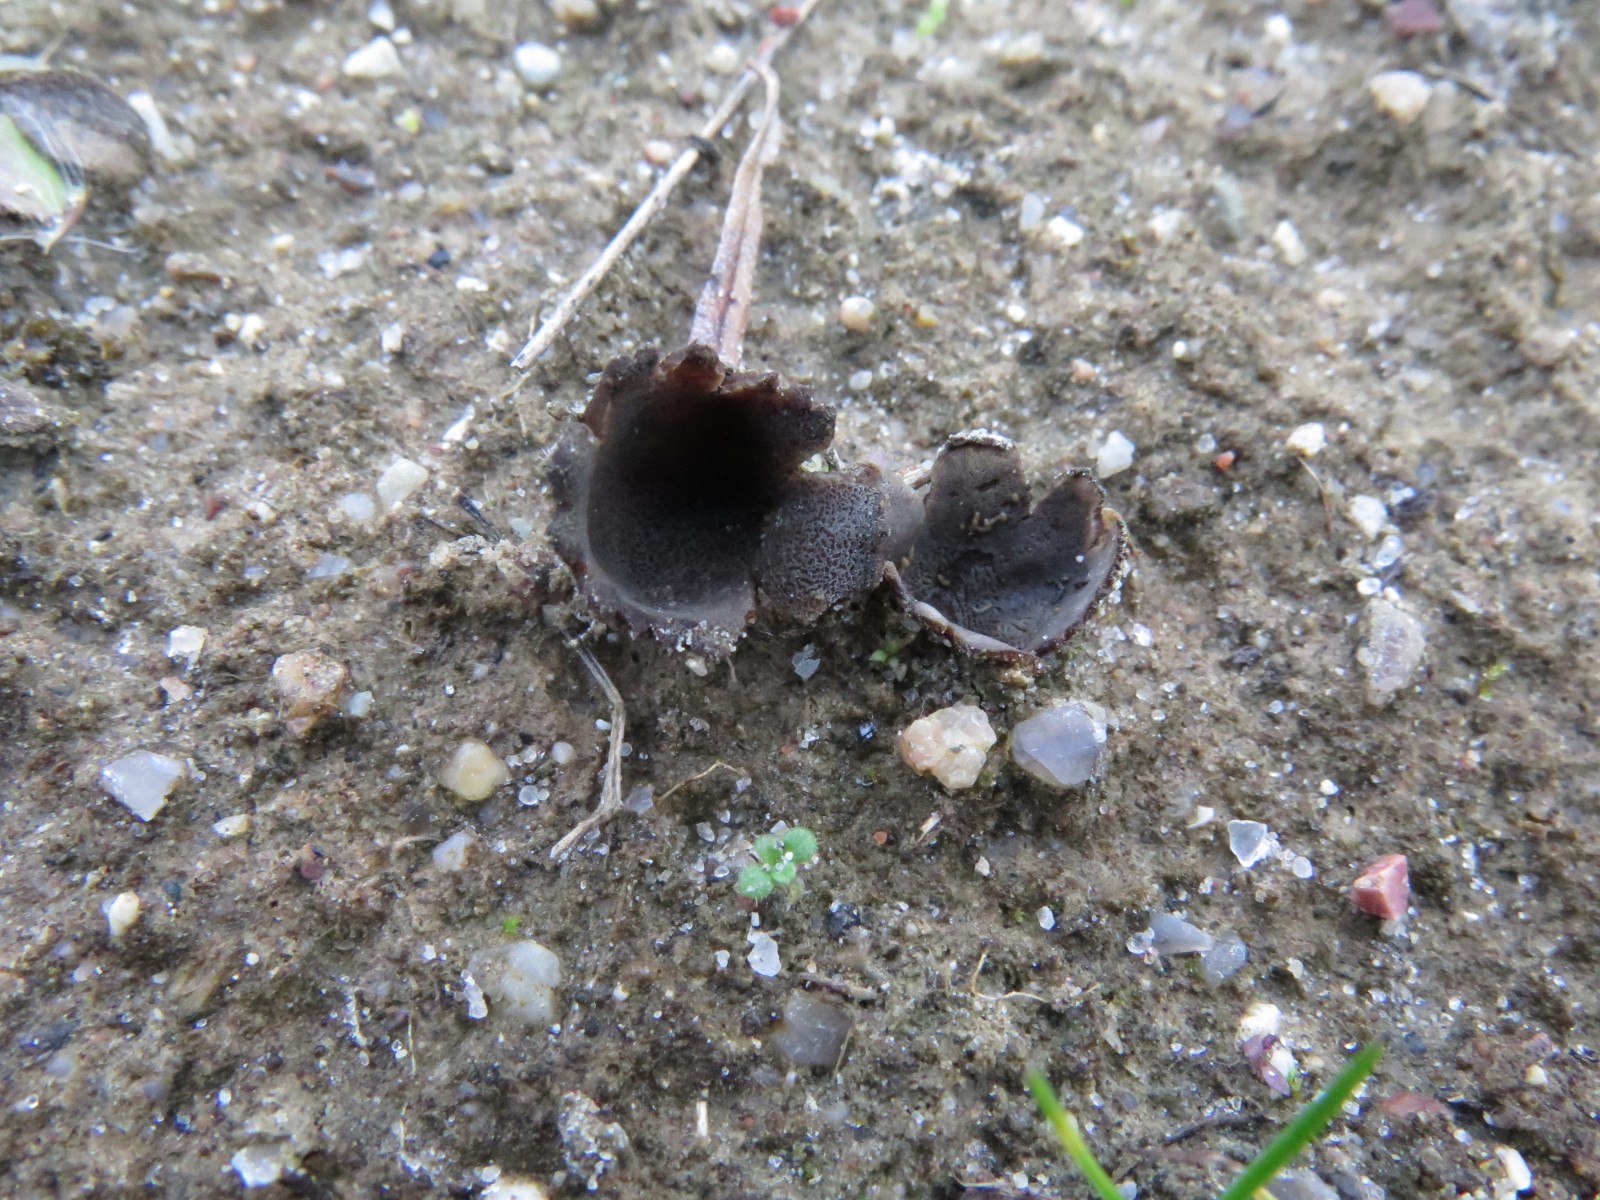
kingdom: Fungi
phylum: Ascomycota
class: Pezizomycetes
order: Pezizales
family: Pyronemataceae
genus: Geopora
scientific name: Geopora
